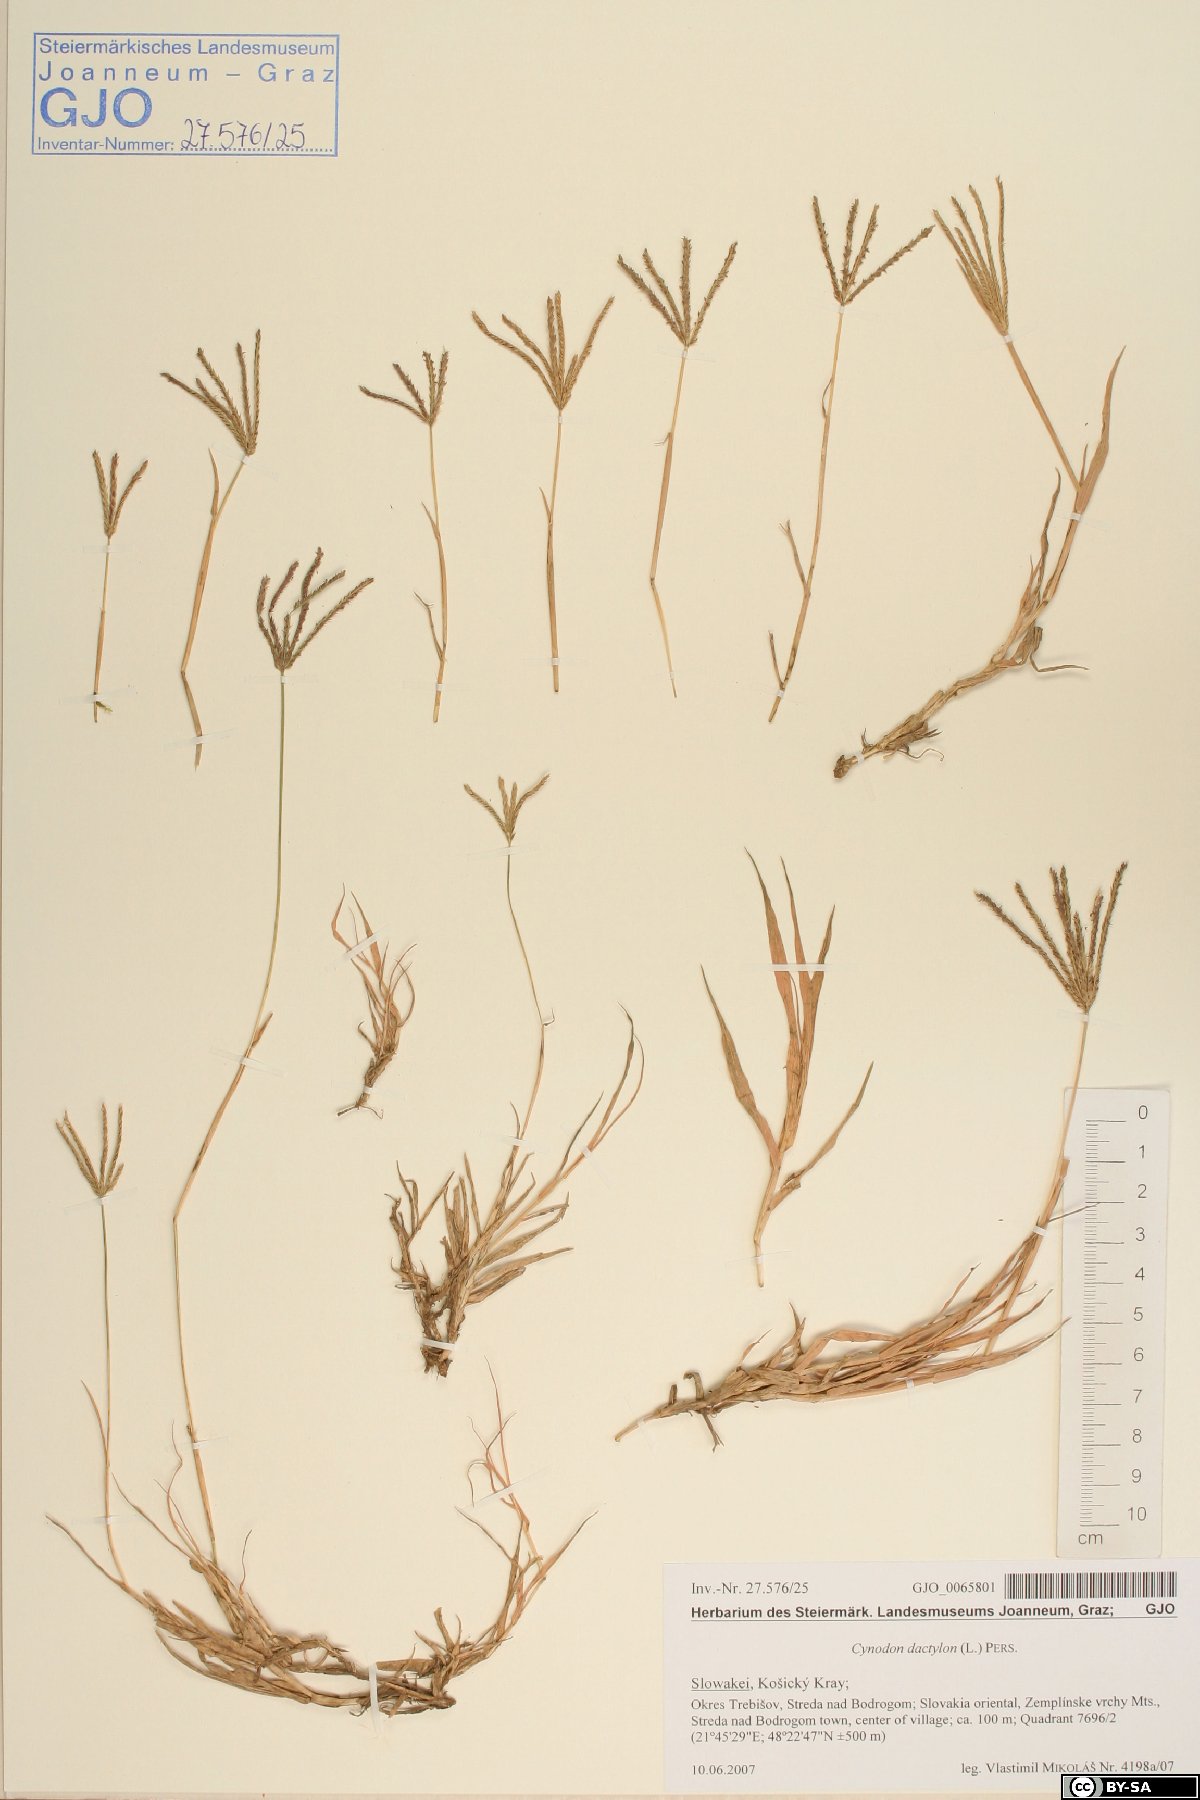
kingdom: Plantae
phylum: Tracheophyta
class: Liliopsida
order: Poales
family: Poaceae
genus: Cynodon
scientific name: Cynodon dactylon
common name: Bermuda grass
